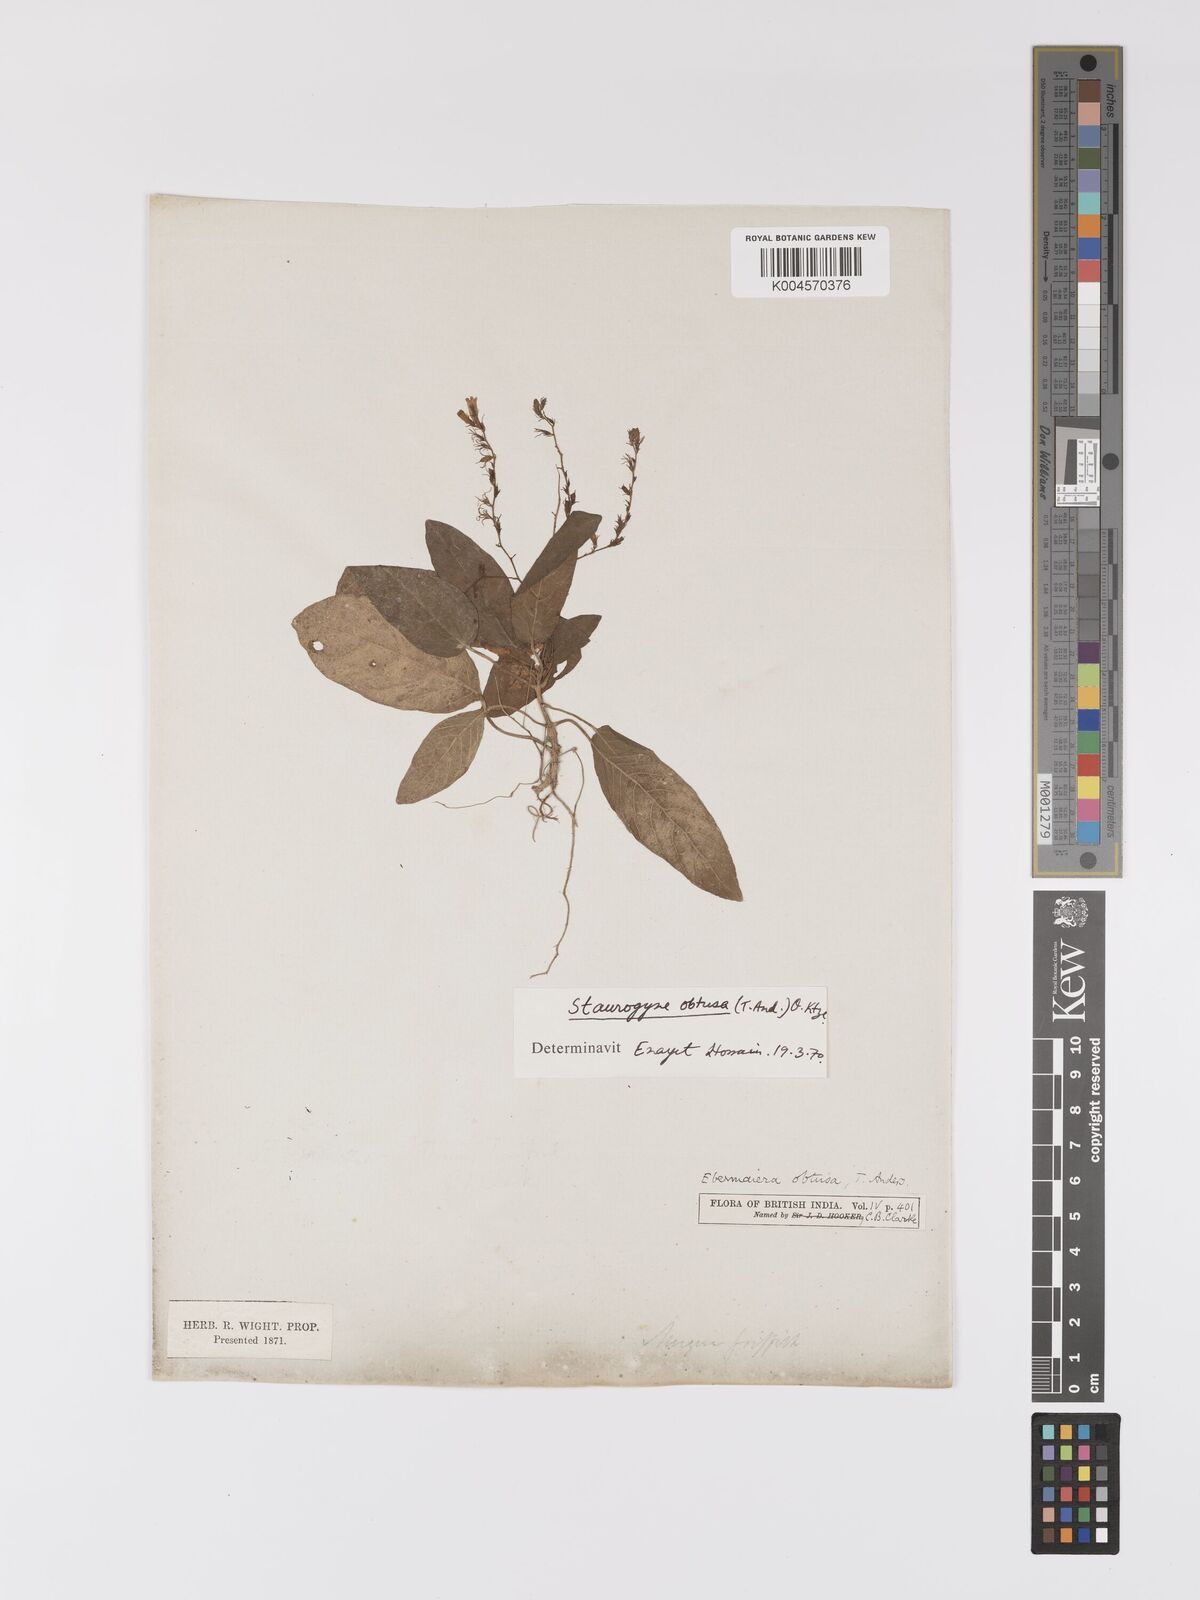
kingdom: Plantae
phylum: Tracheophyta
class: Magnoliopsida
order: Lamiales
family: Acanthaceae
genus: Staurogyne
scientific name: Staurogyne obtusa
